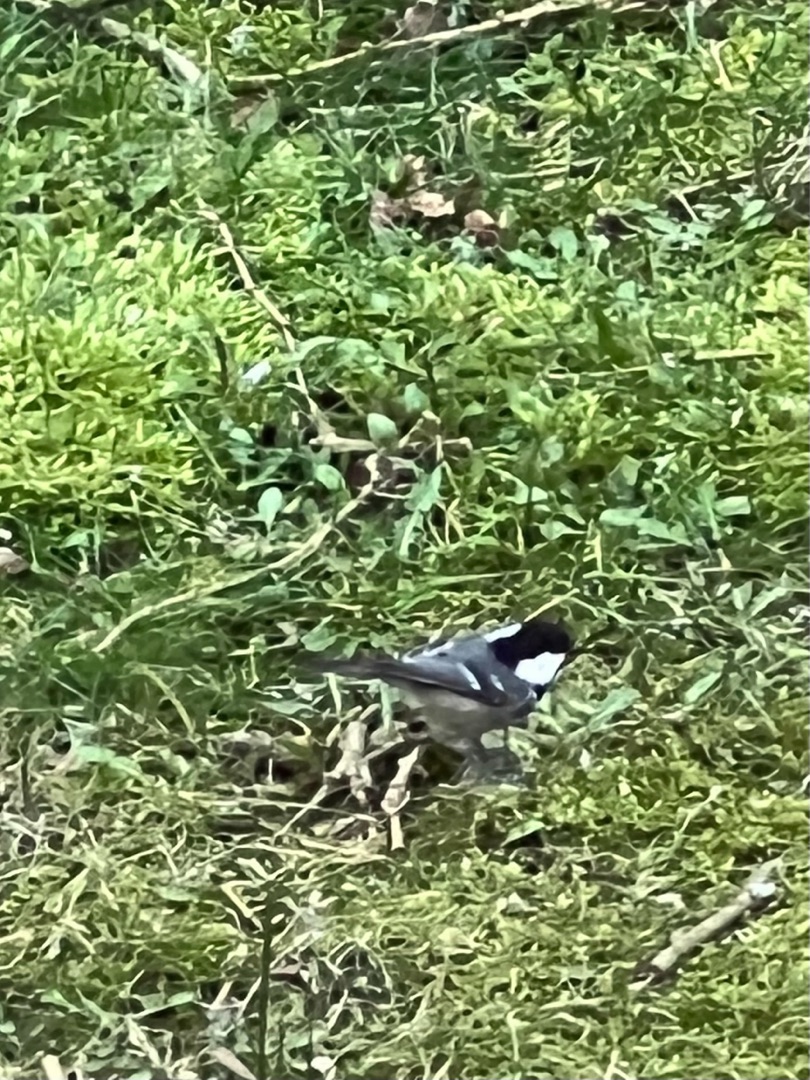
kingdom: Animalia
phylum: Chordata
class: Aves
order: Passeriformes
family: Paridae
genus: Periparus
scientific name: Periparus ater
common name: Sortmejse
